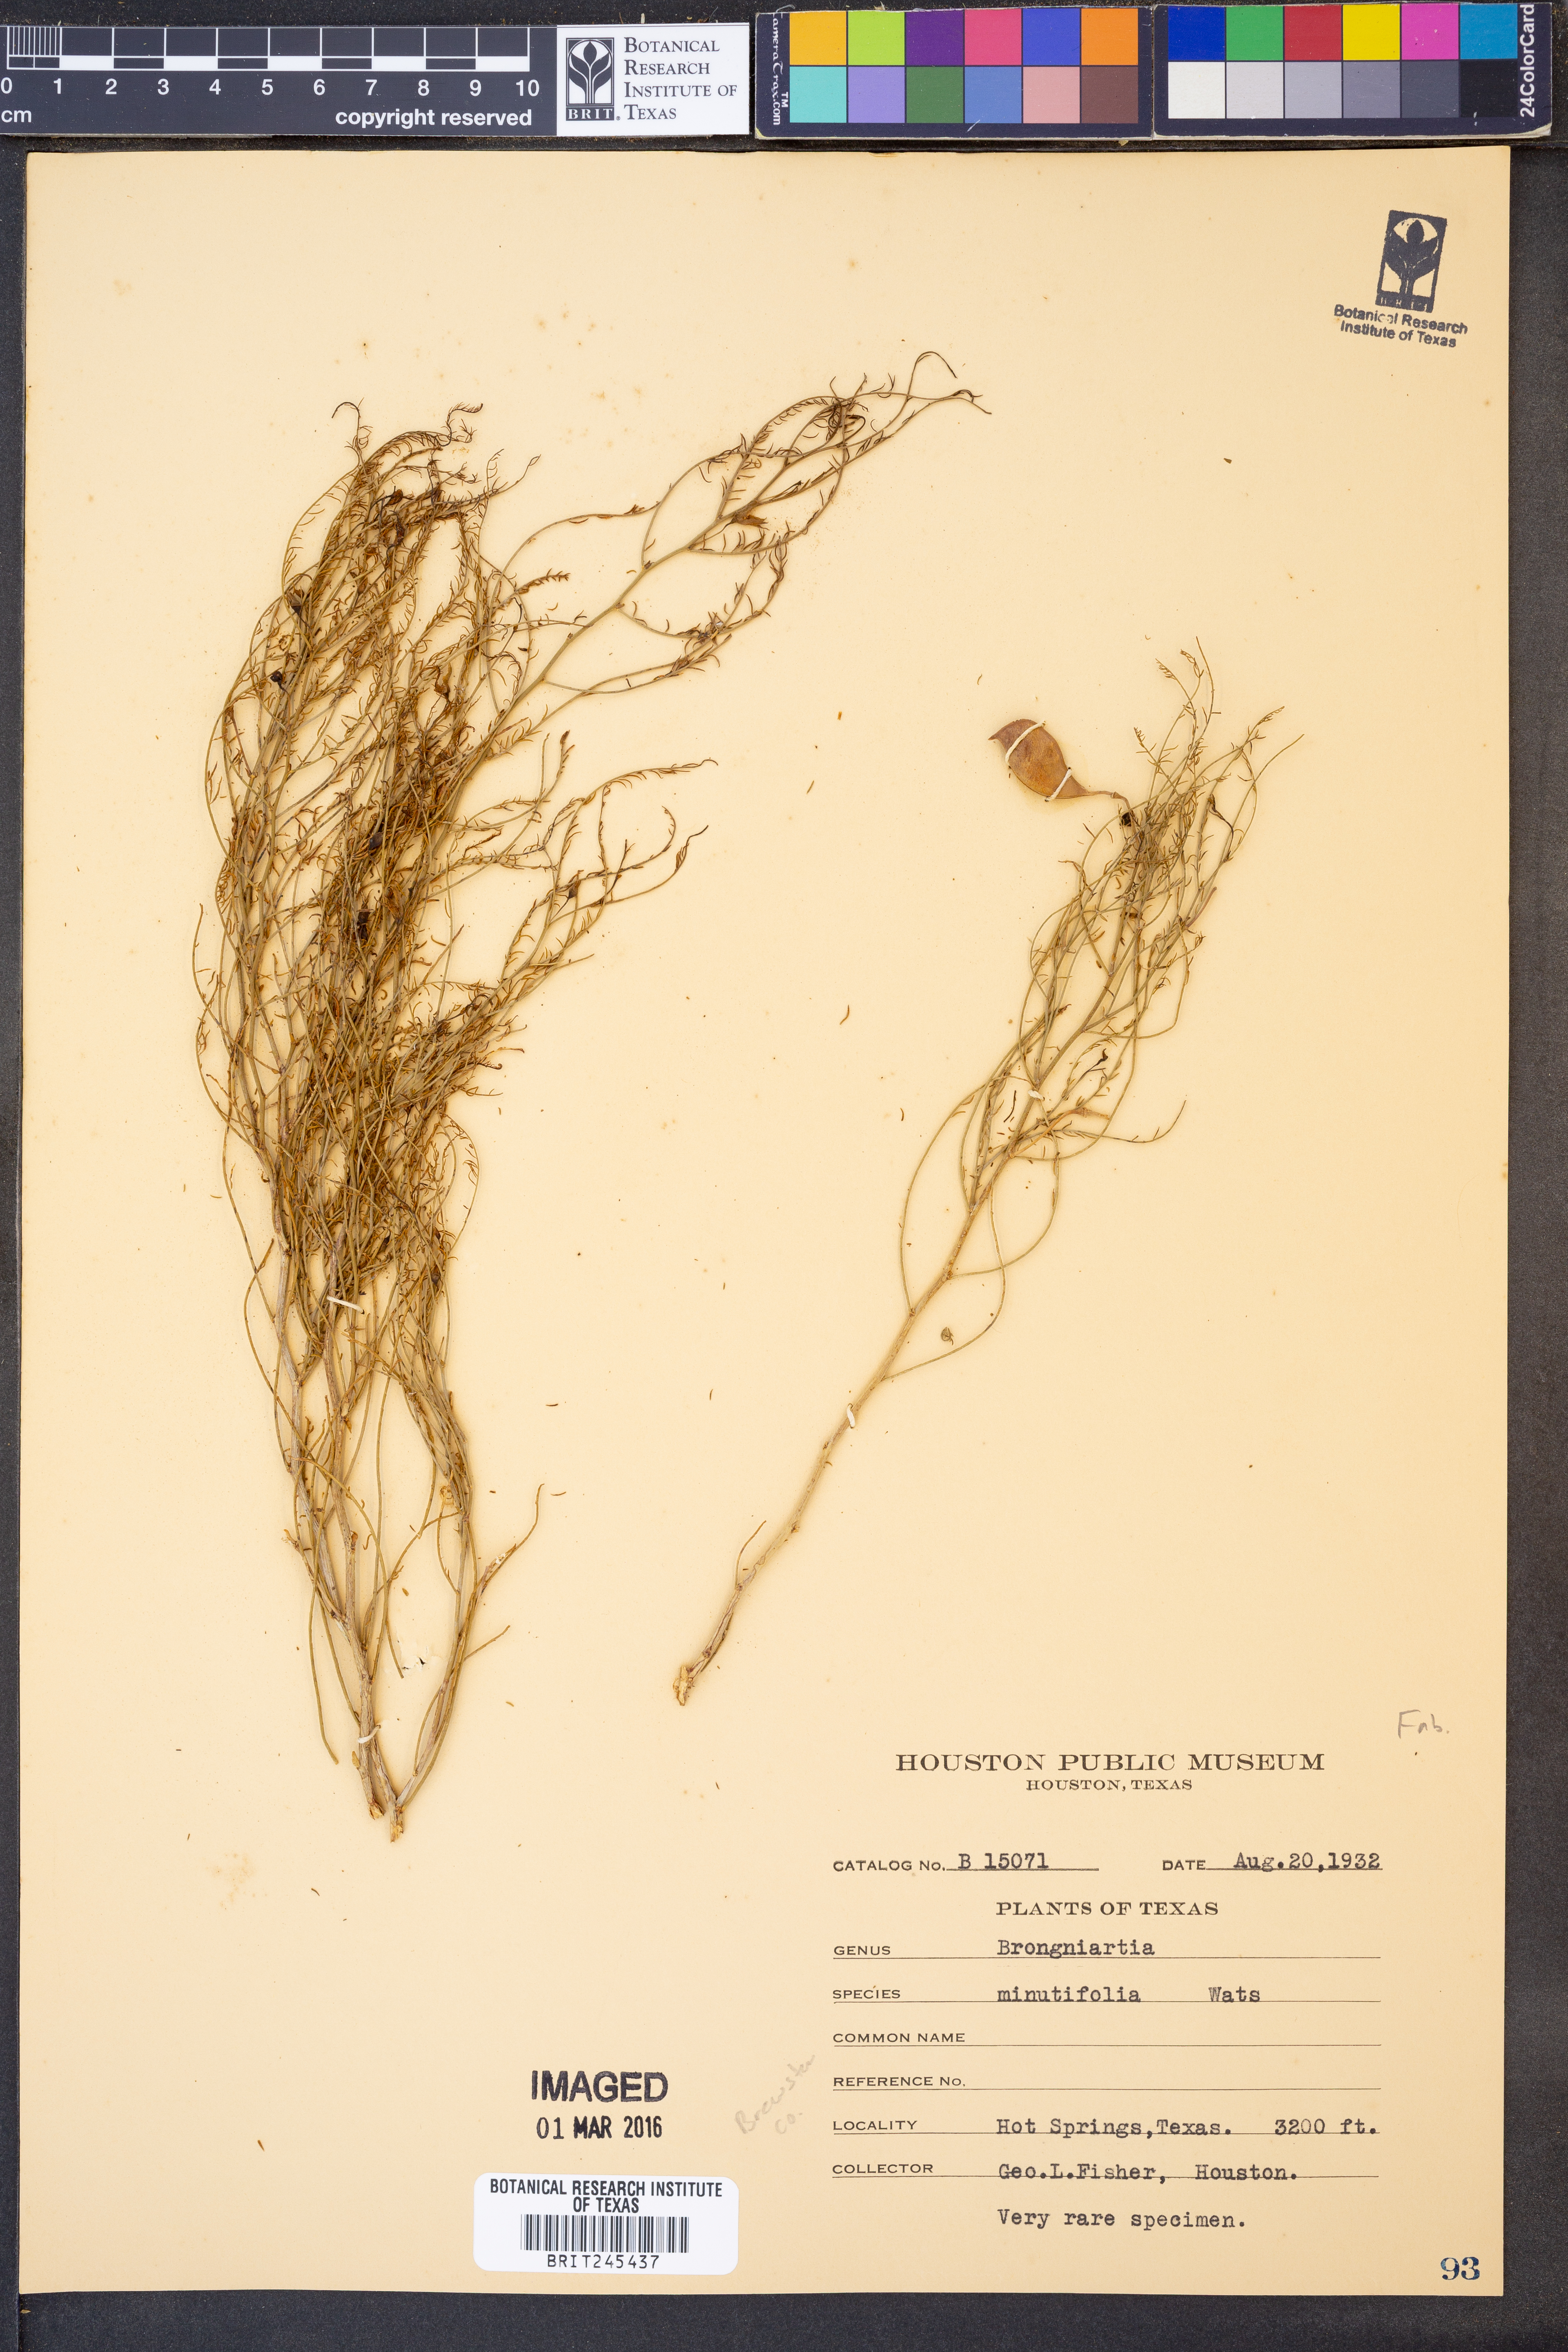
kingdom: Plantae
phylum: Tracheophyta
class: Magnoliopsida
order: Fabales
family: Fabaceae
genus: Brongniartia
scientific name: Brongniartia minutifolia
